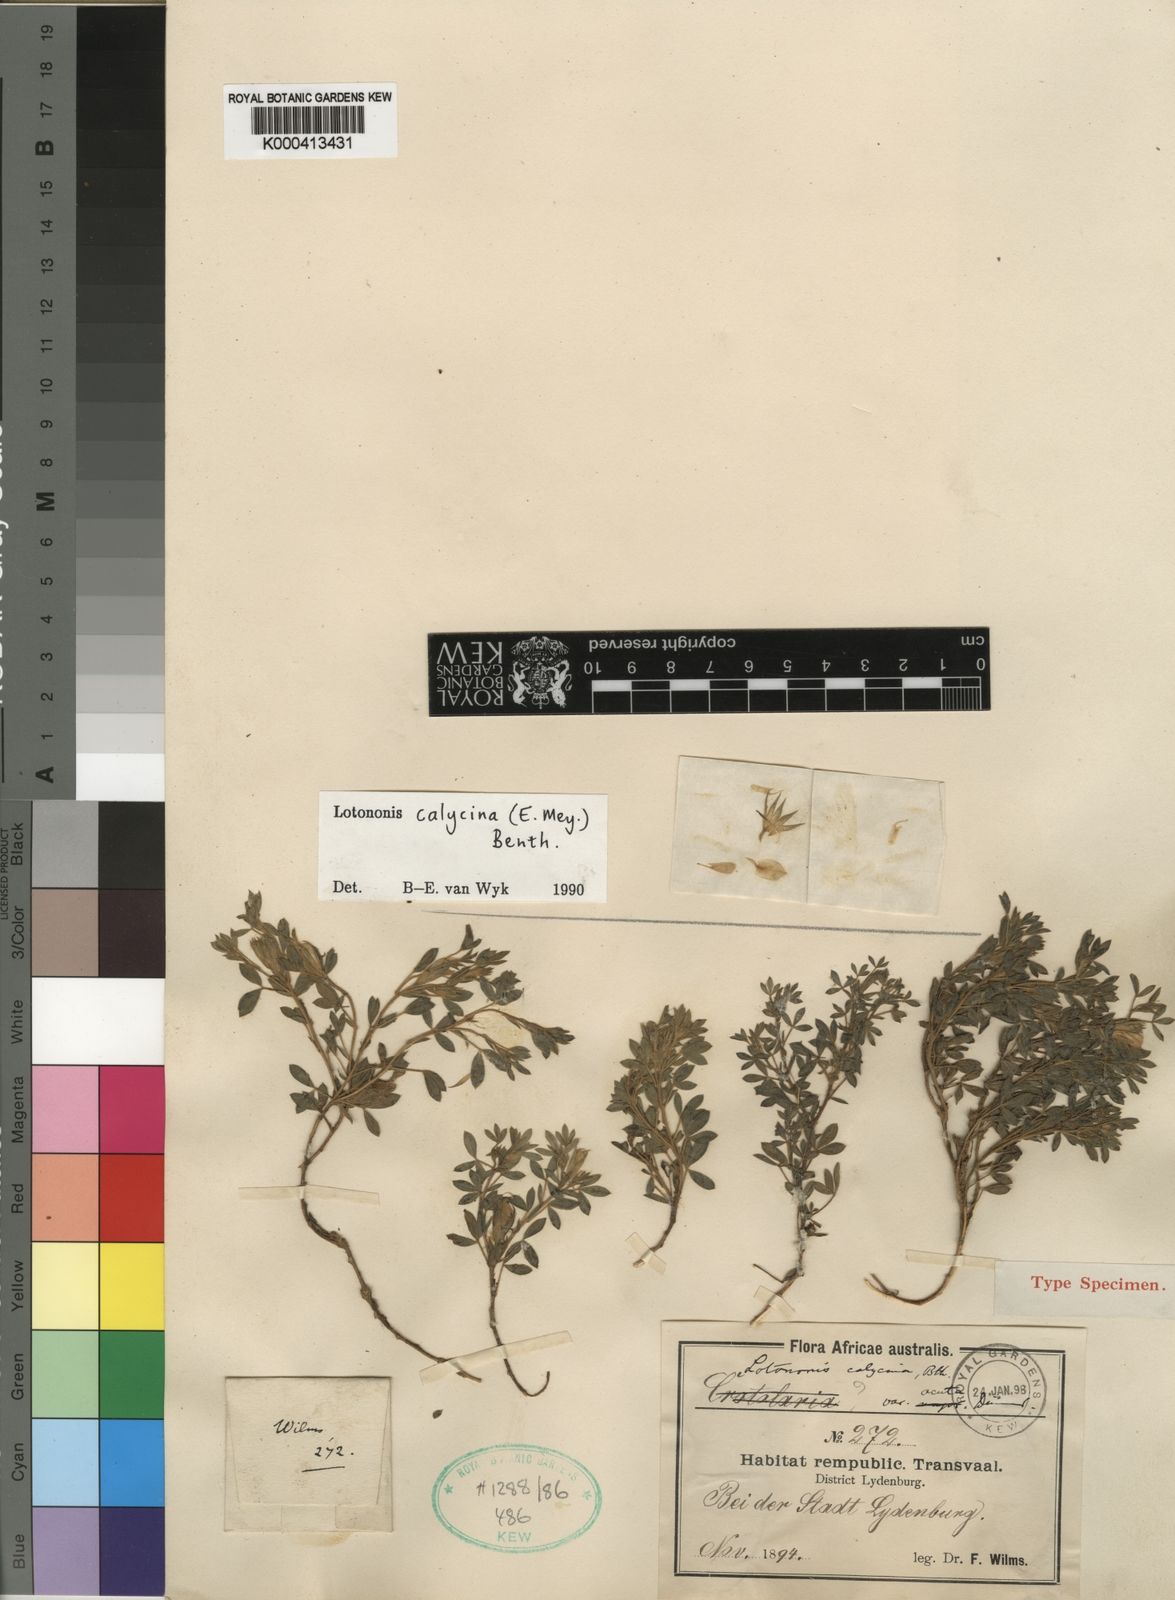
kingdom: Plantae
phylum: Tracheophyta
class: Magnoliopsida
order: Fabales
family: Fabaceae
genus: Leobordea
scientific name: Leobordea divaricata
